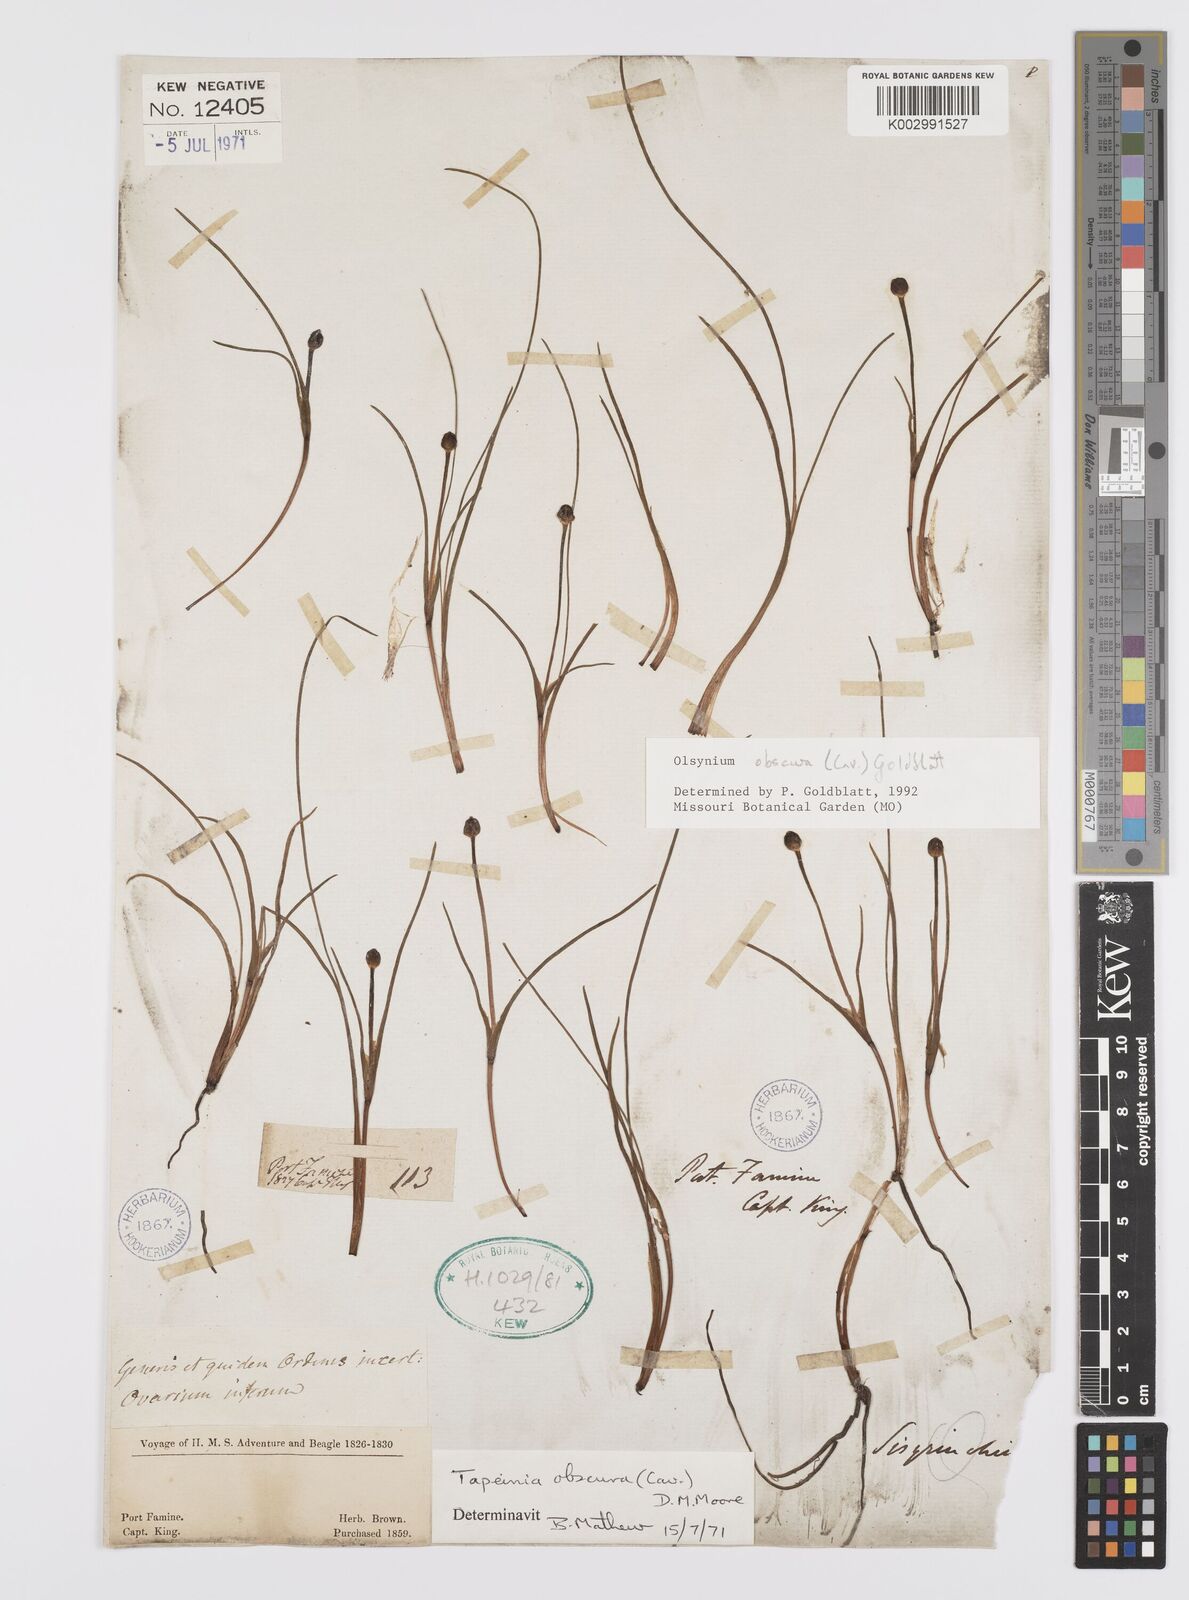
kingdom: Plantae
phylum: Tracheophyta
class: Liliopsida
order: Asparagales
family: Iridaceae
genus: Olsynium
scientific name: Olsynium obscurum
